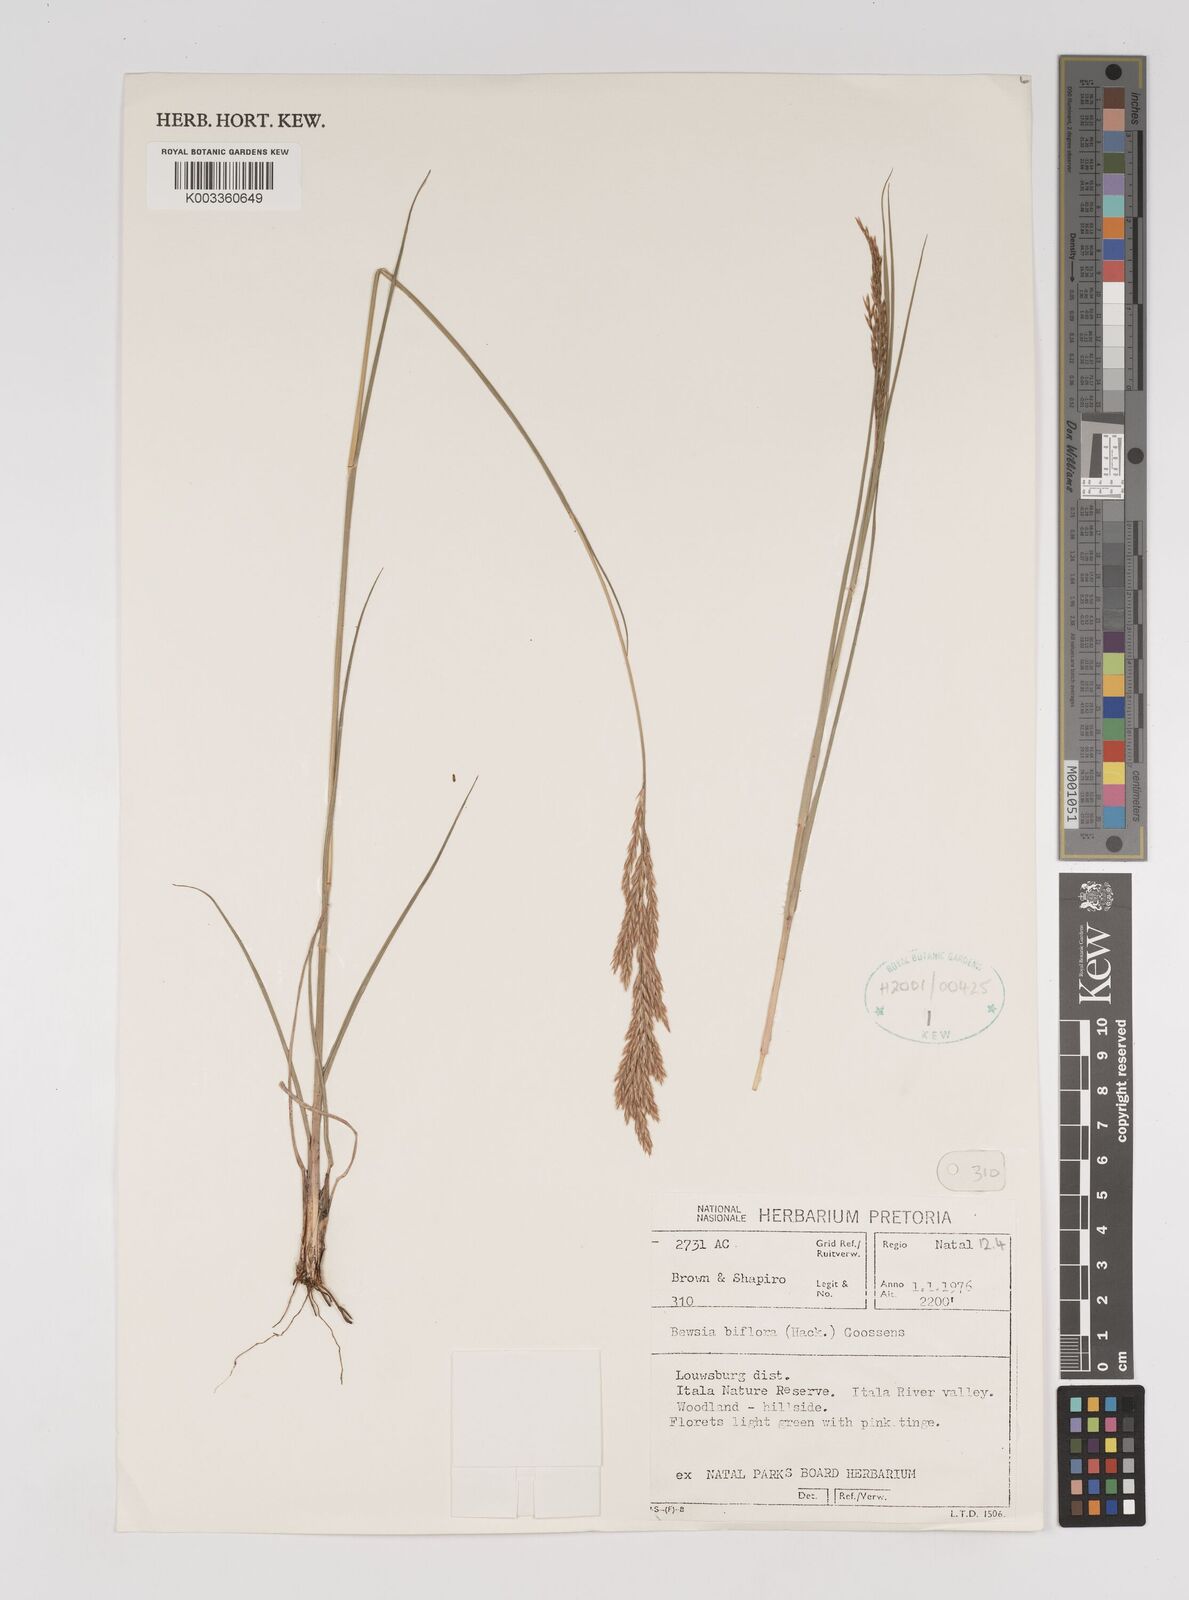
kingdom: Plantae
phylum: Tracheophyta
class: Liliopsida
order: Poales
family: Poaceae
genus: Bewsia
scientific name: Bewsia biflora
